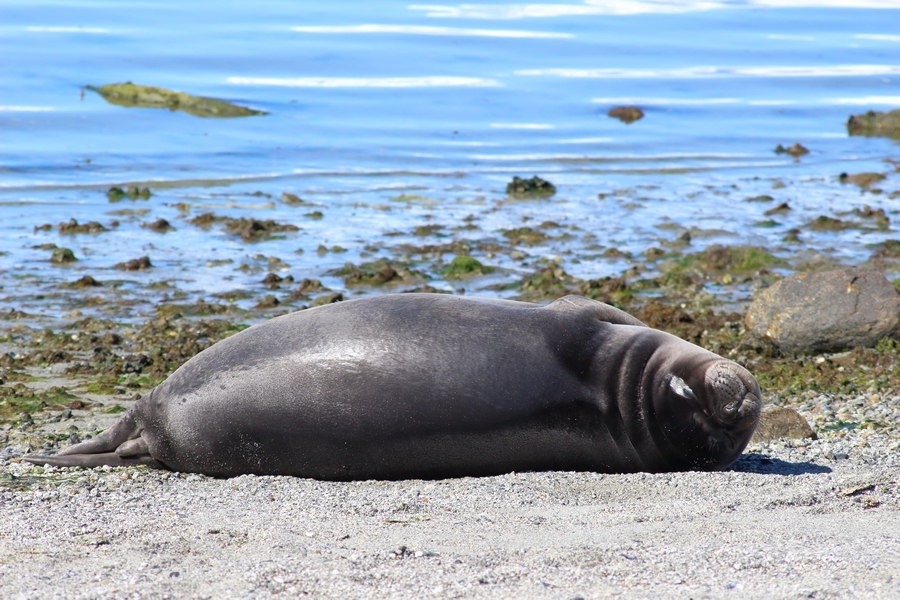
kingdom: Animalia
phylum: Chordata
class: Mammalia
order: Carnivora
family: Phocidae
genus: Mirounga
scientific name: Mirounga leonina
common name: Southern Elephant Seal
